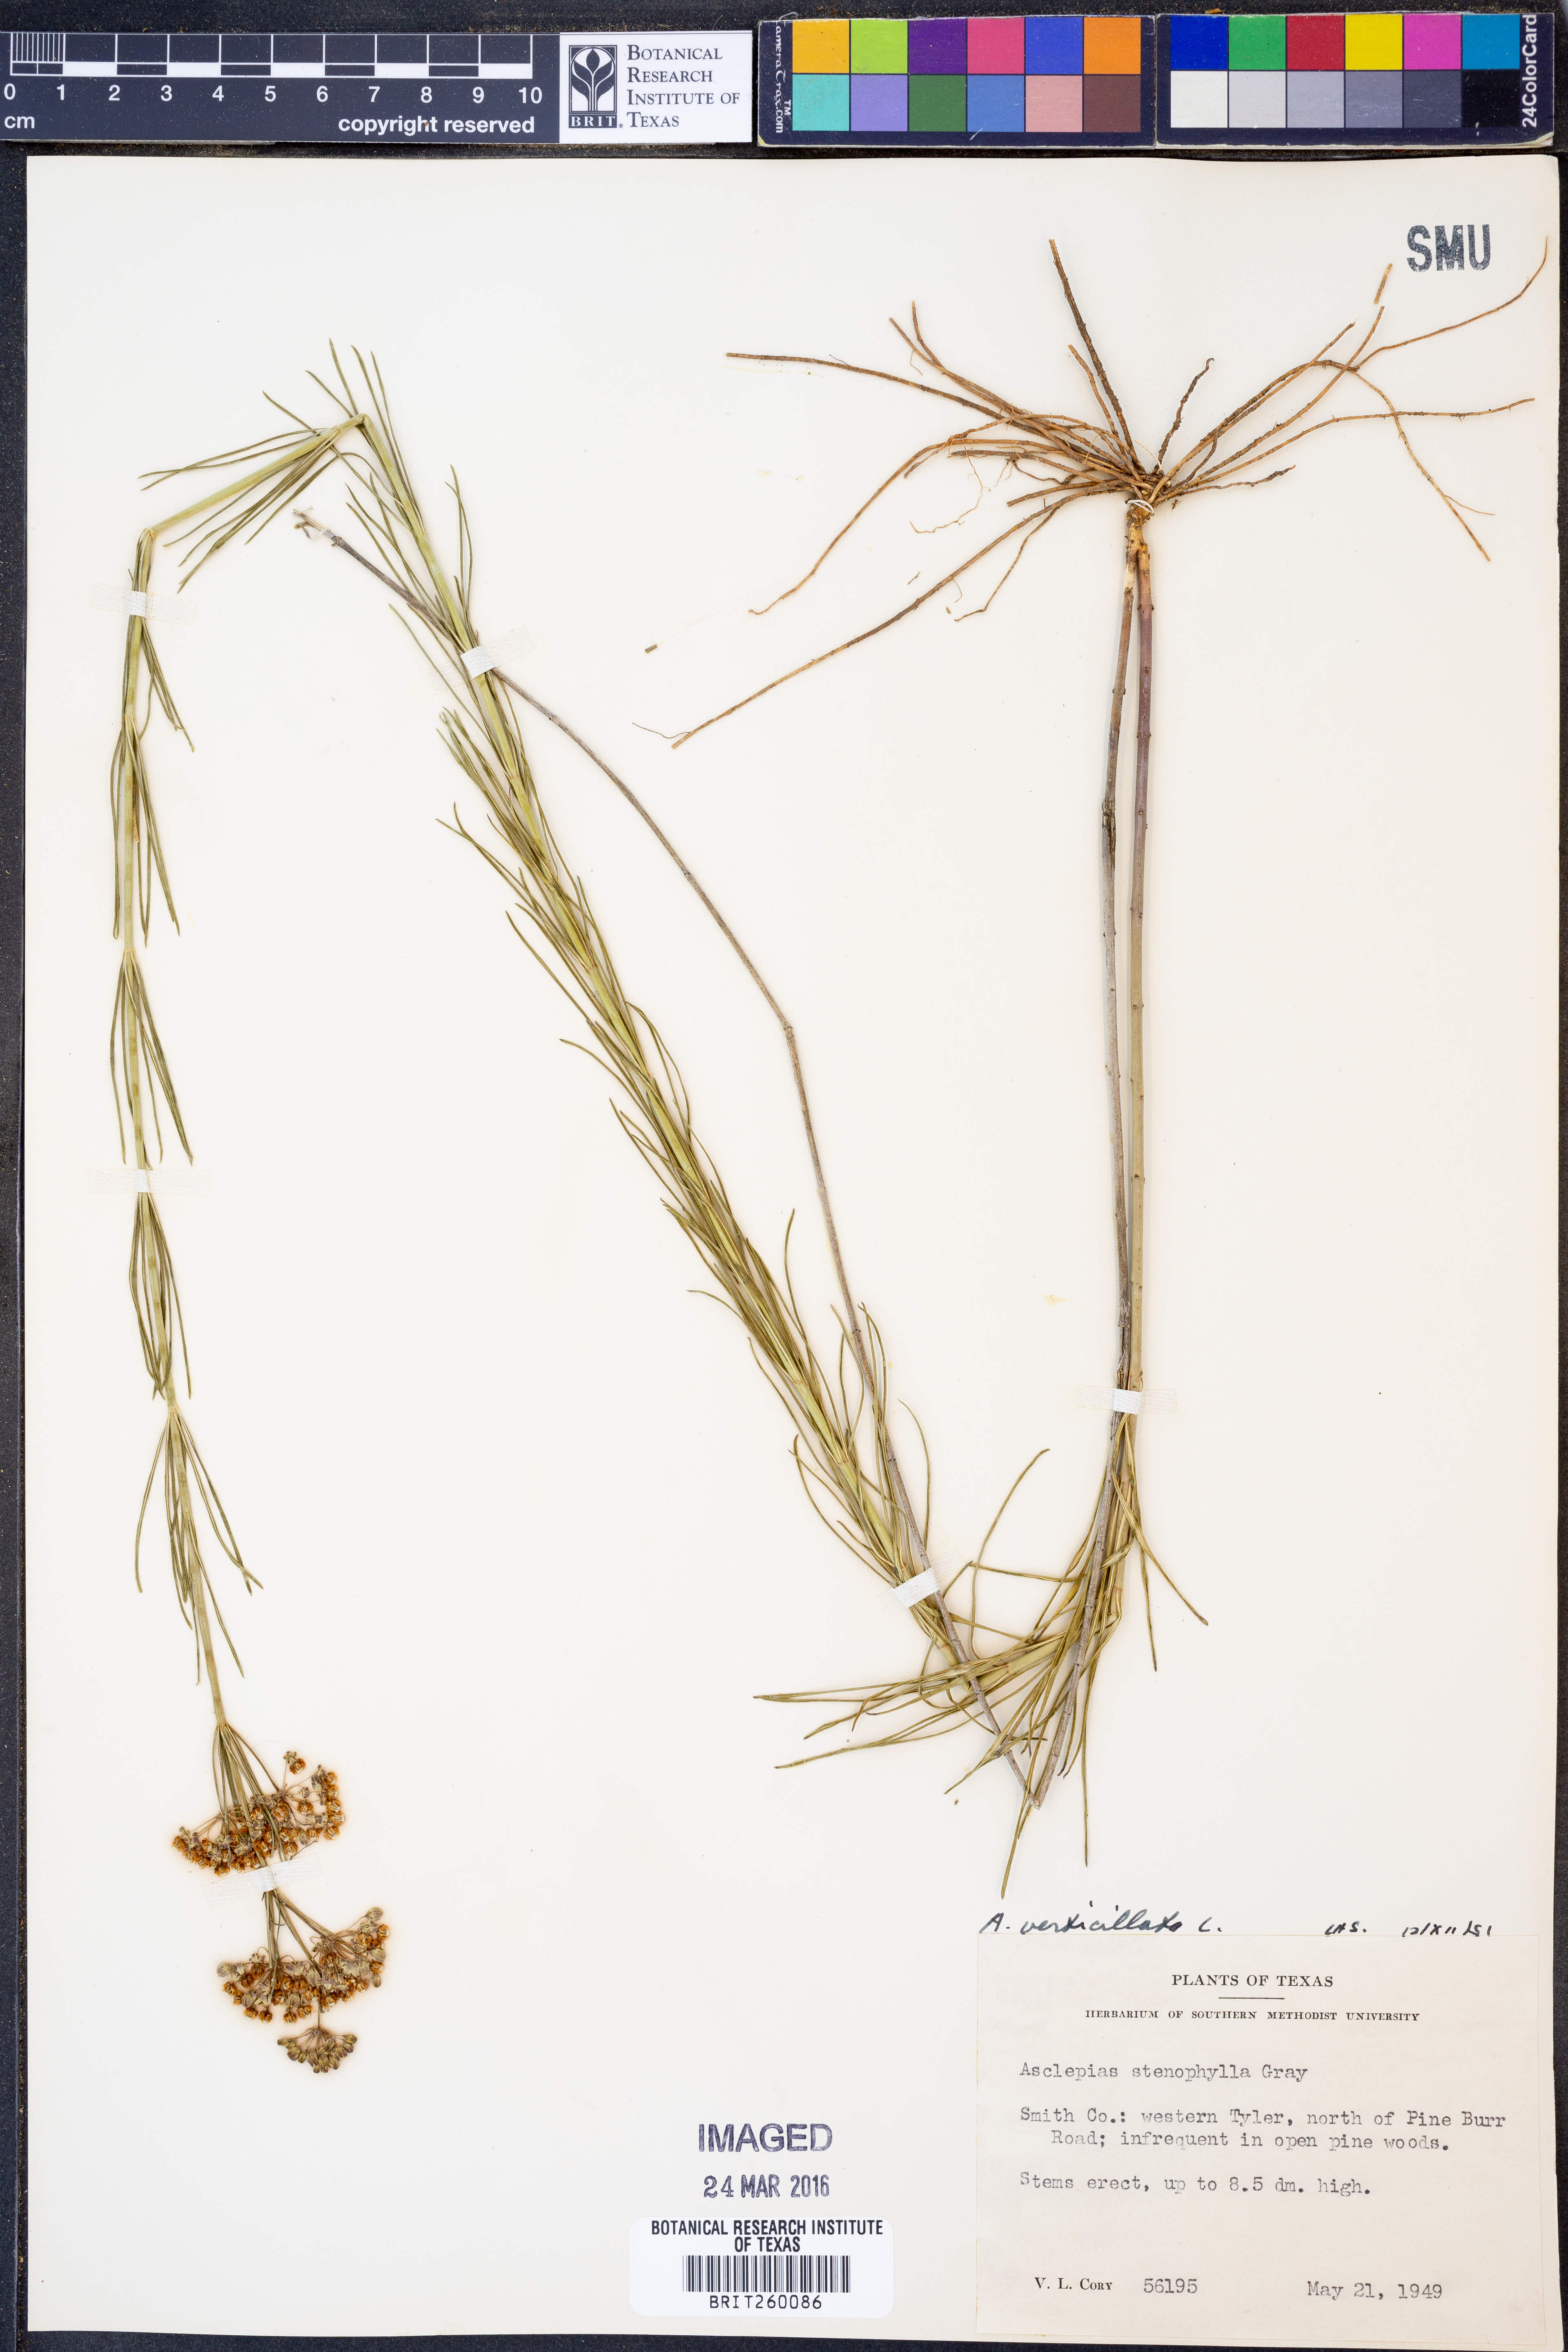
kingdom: Plantae
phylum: Tracheophyta
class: Magnoliopsida
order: Gentianales
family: Apocynaceae
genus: Asclepias
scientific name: Asclepias verticillata
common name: Eastern whorled milkweed
